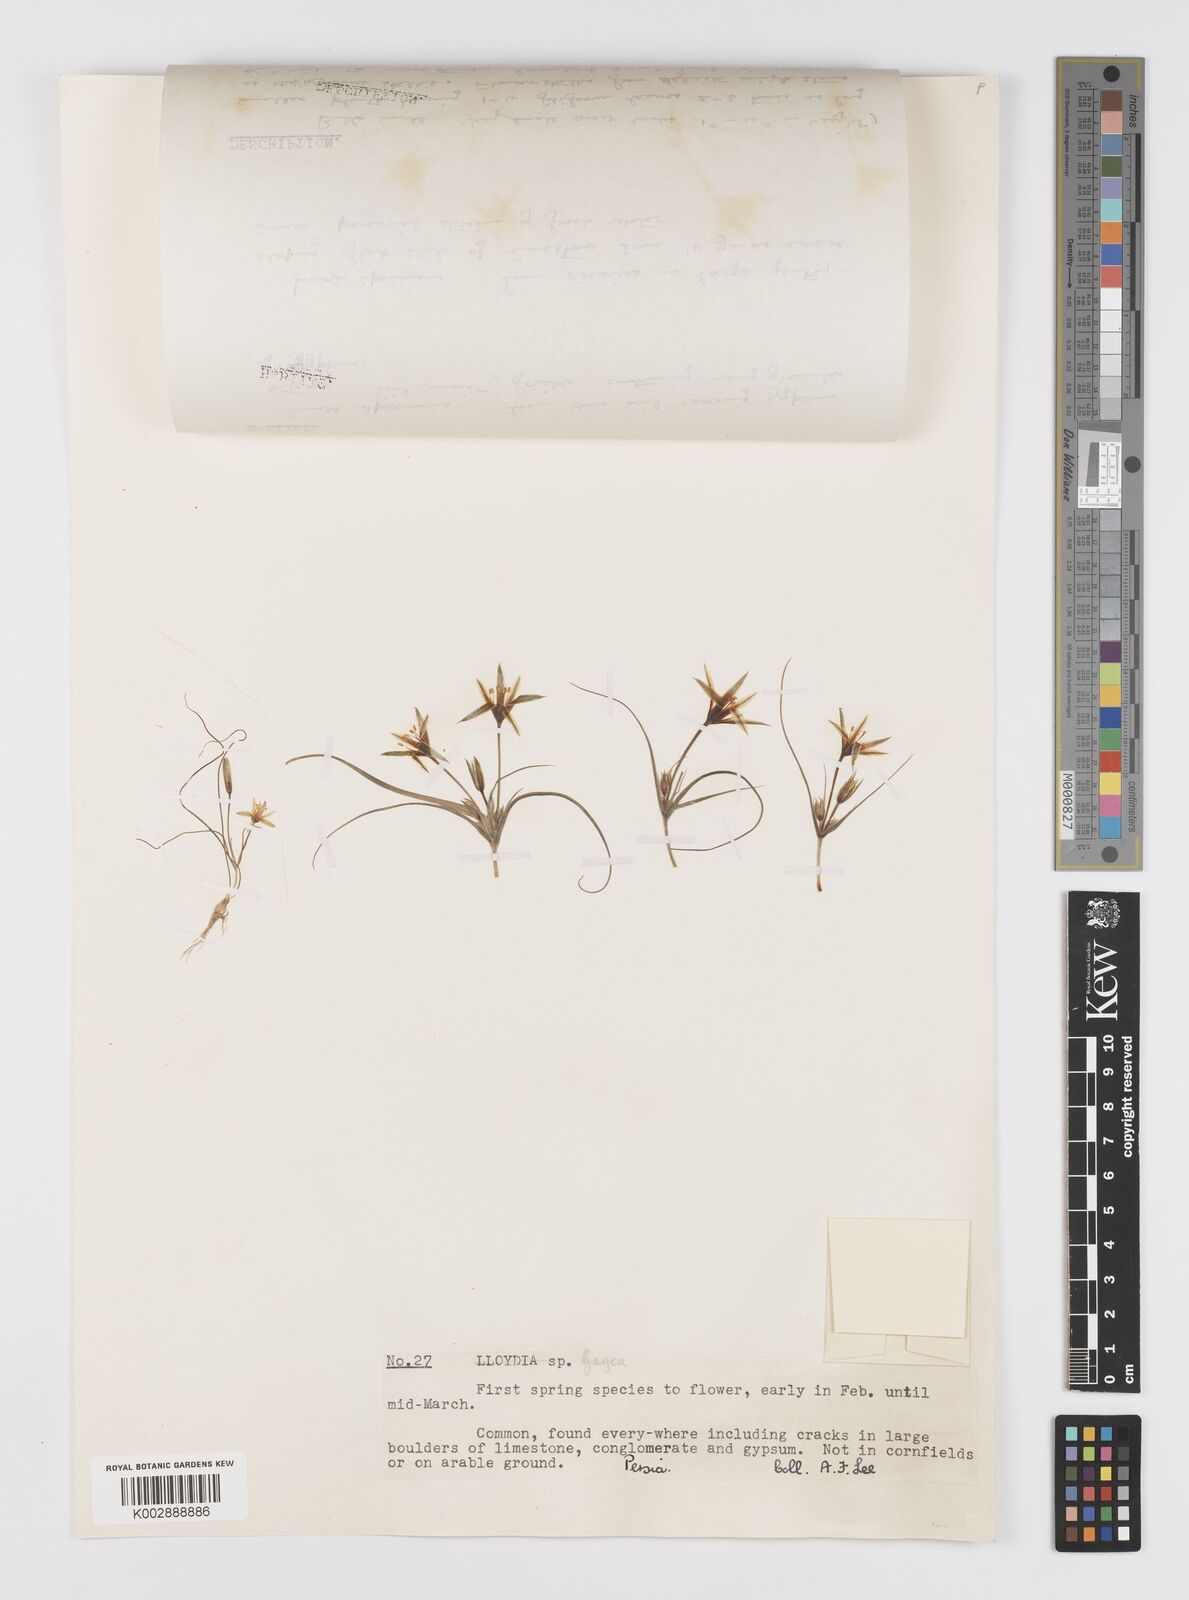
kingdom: Plantae
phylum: Tracheophyta
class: Liliopsida
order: Liliales
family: Liliaceae
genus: Gagea
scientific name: Gagea
